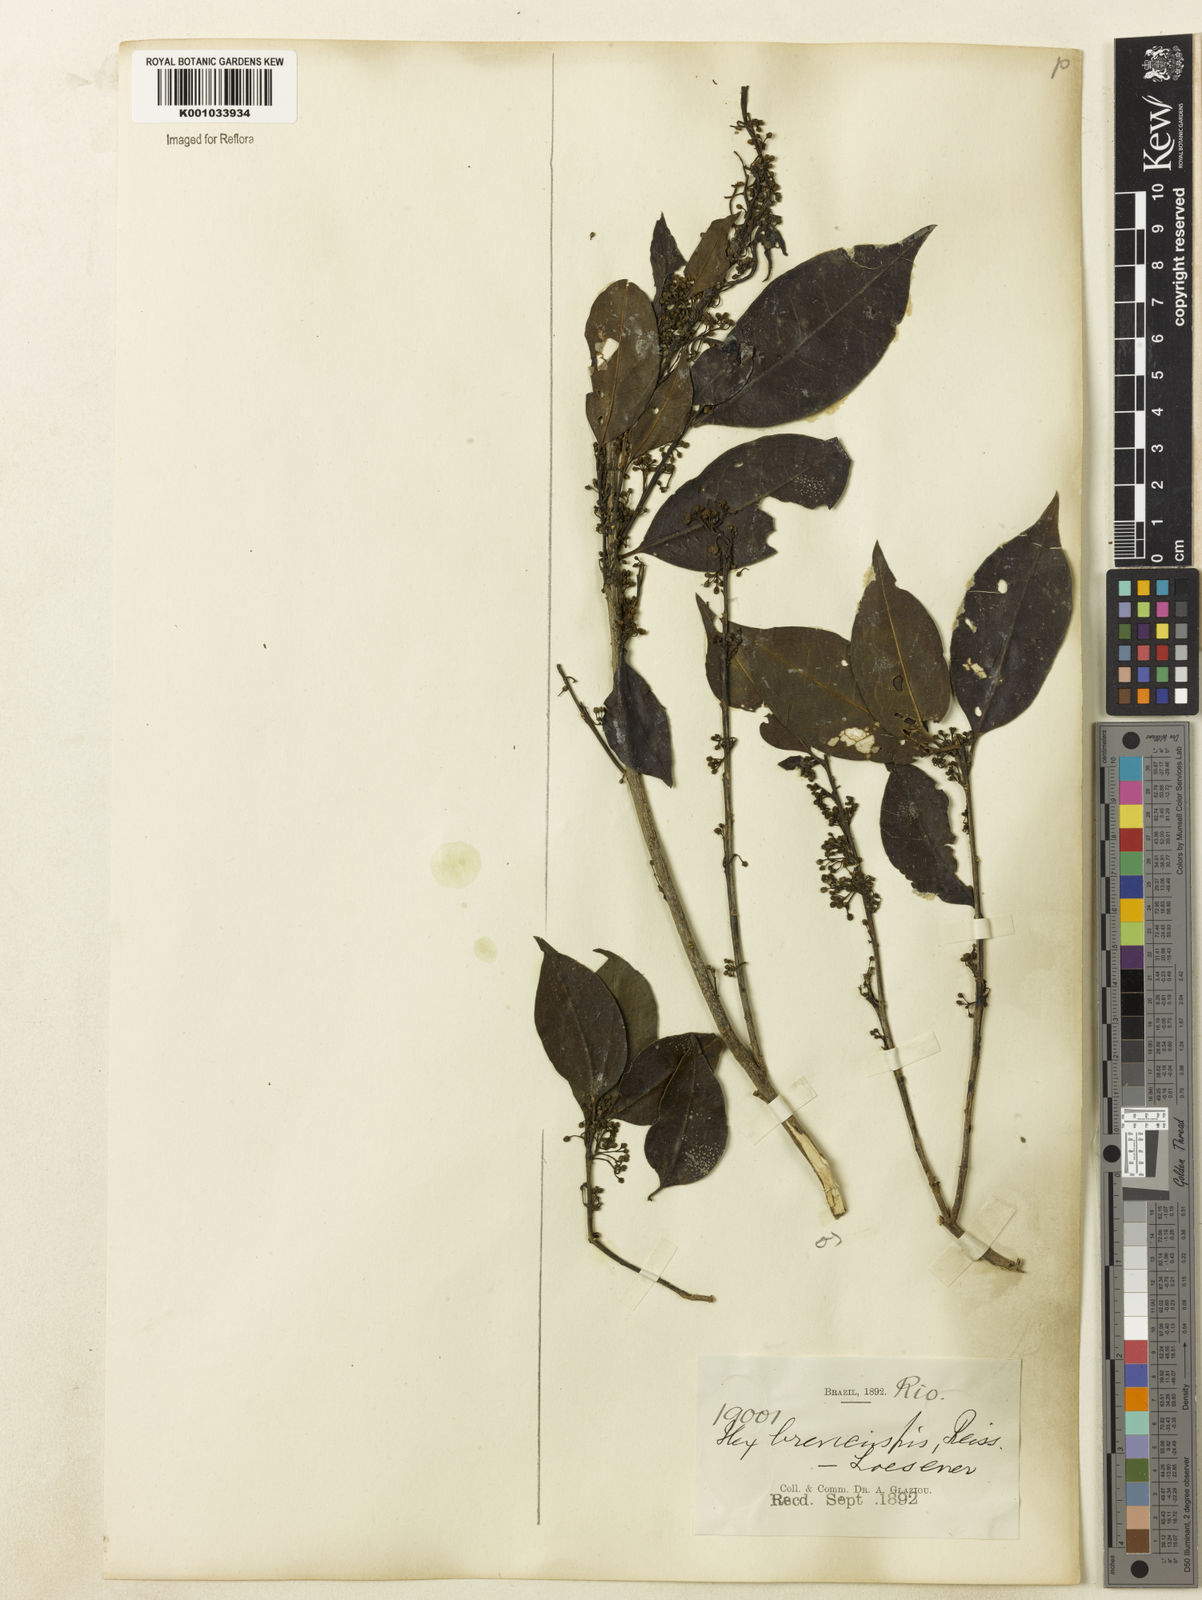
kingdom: Plantae
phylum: Tracheophyta
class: Magnoliopsida
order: Aquifoliales
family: Aquifoliaceae
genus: Ilex
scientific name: Ilex brevicuspis
